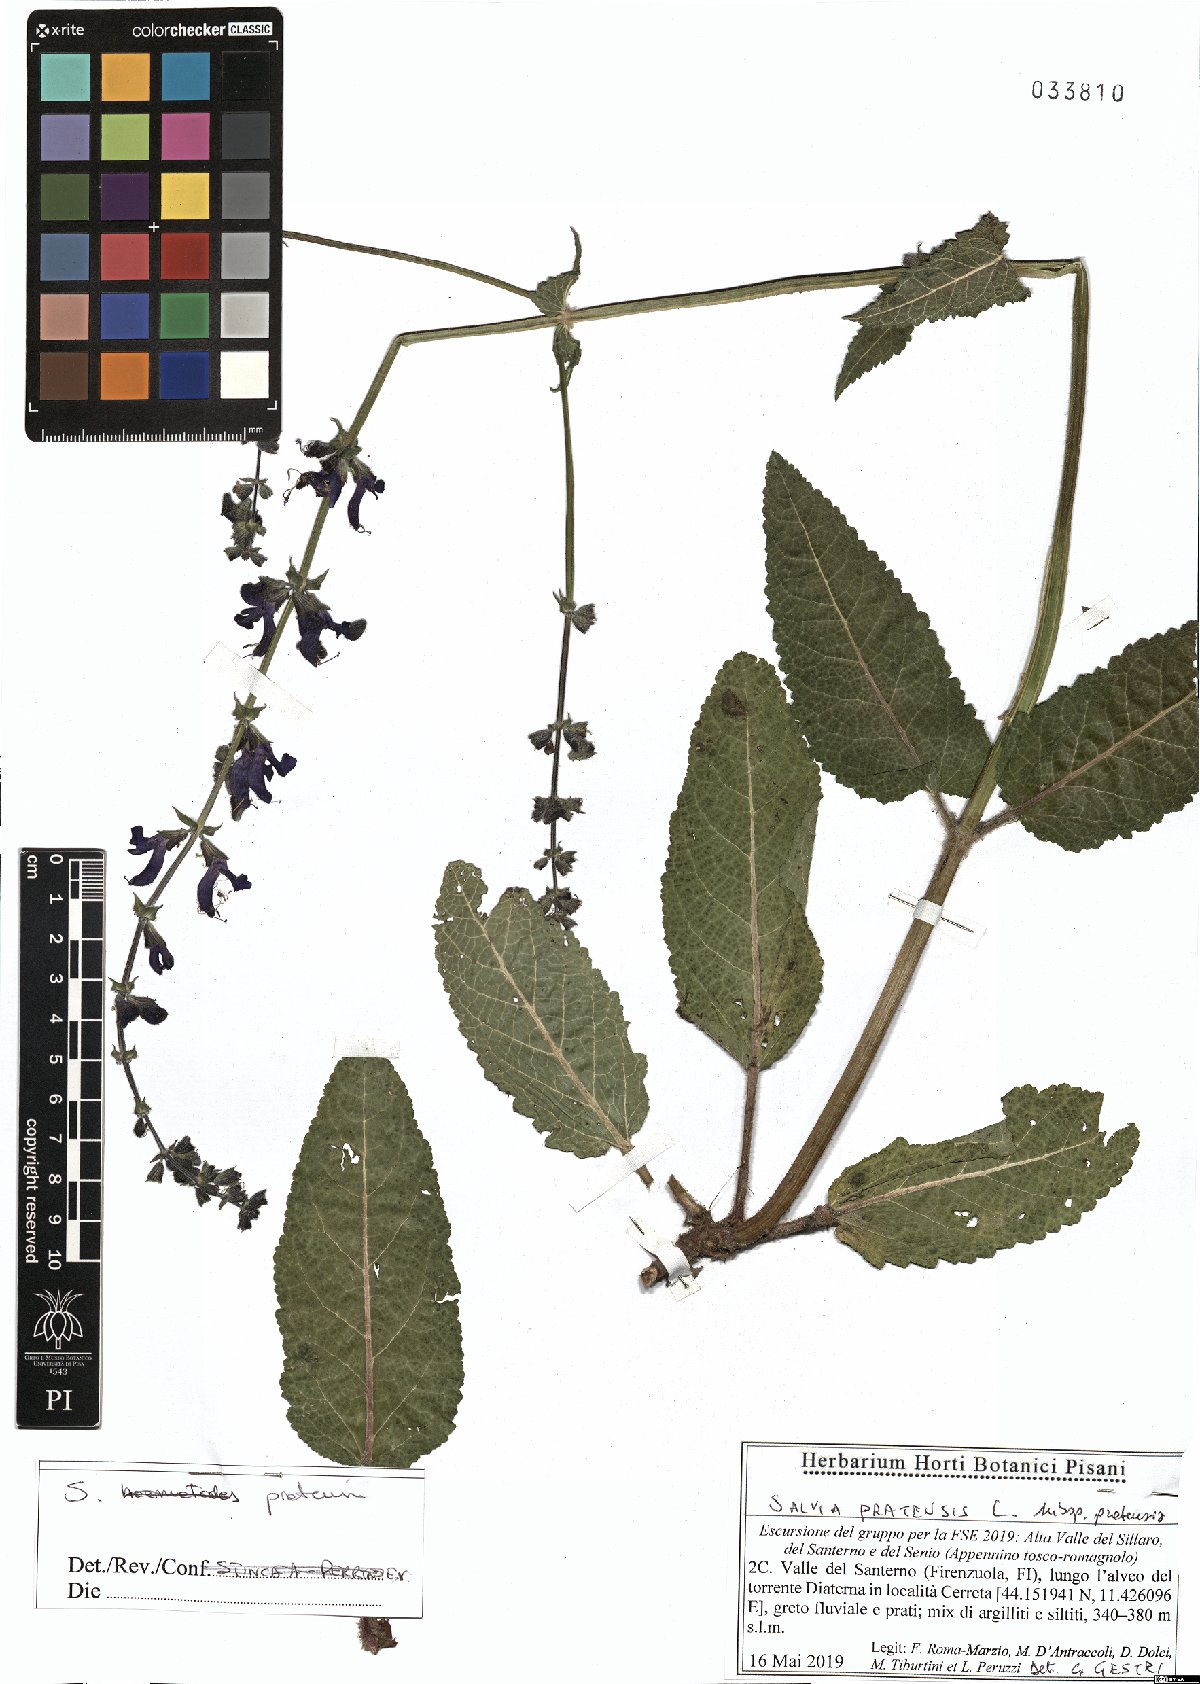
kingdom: Plantae
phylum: Tracheophyta
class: Magnoliopsida
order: Lamiales
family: Lamiaceae
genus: Salvia
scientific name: Salvia pratensis
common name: Meadow sage
